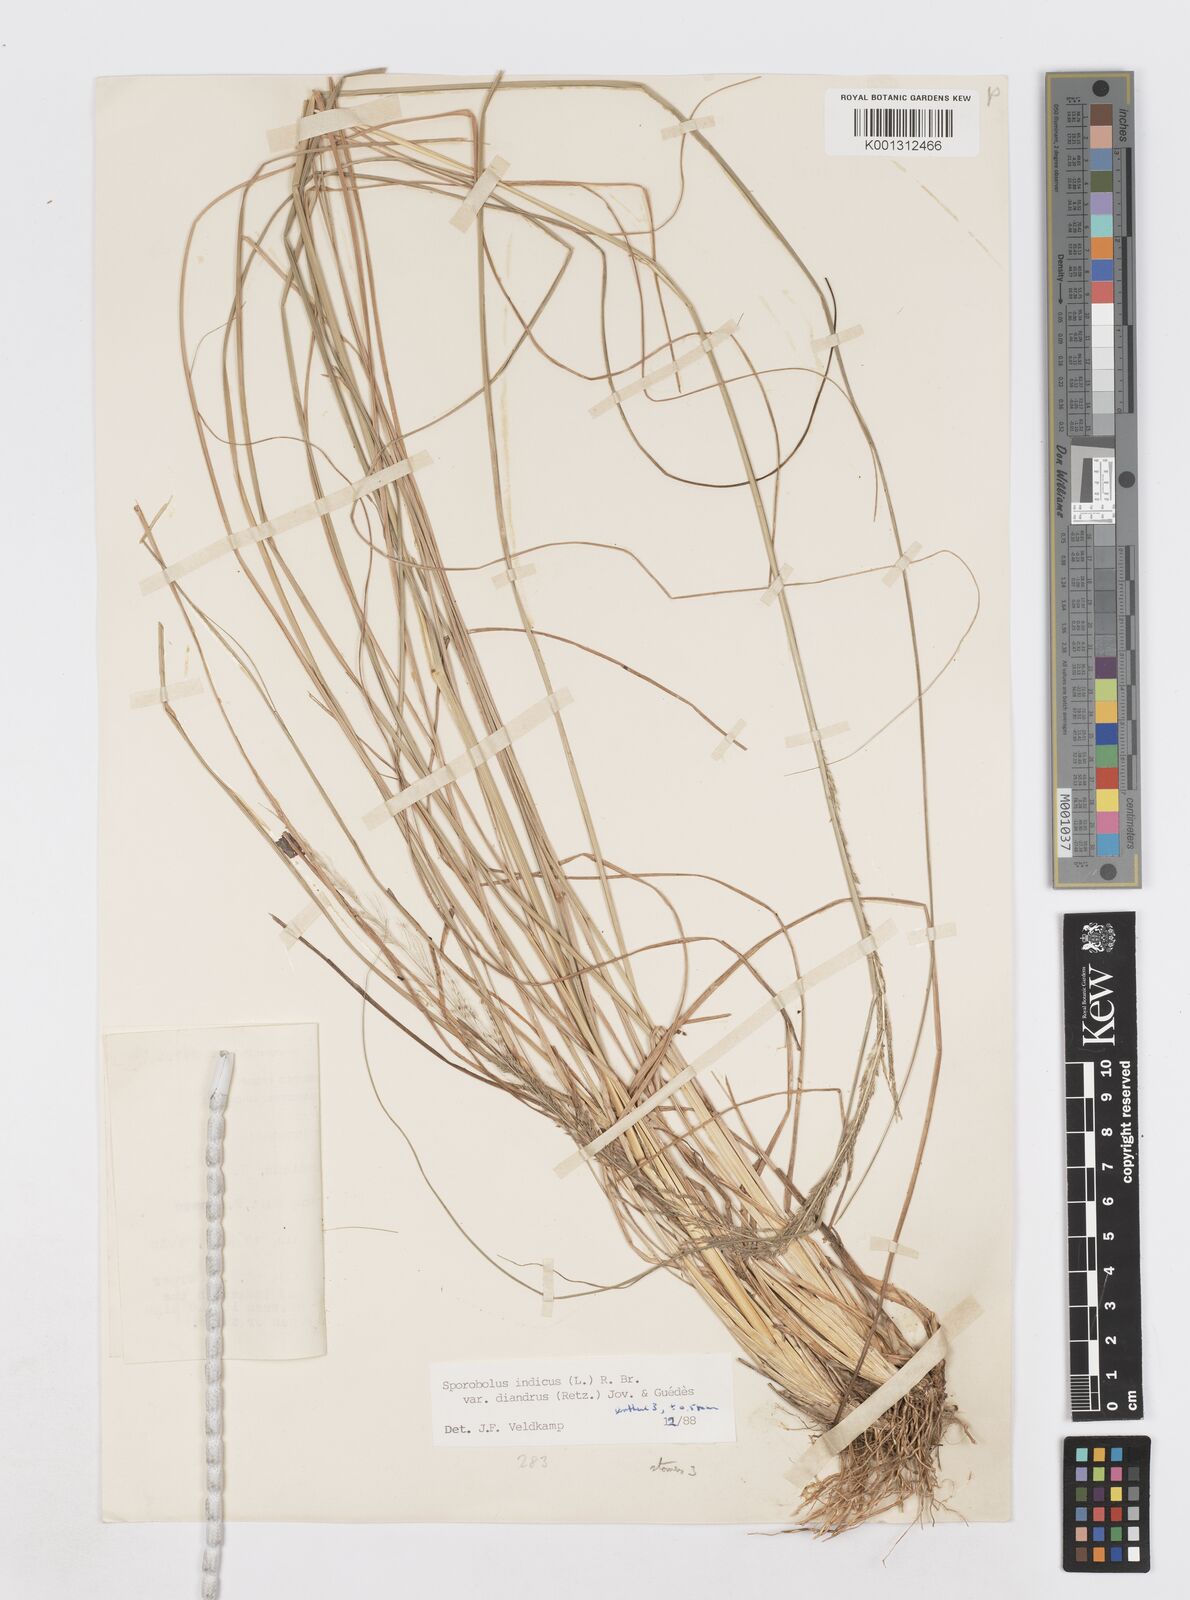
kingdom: Plantae
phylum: Tracheophyta
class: Liliopsida
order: Poales
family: Poaceae
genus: Sporobolus
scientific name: Sporobolus diandrus
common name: Tussock dropseed
